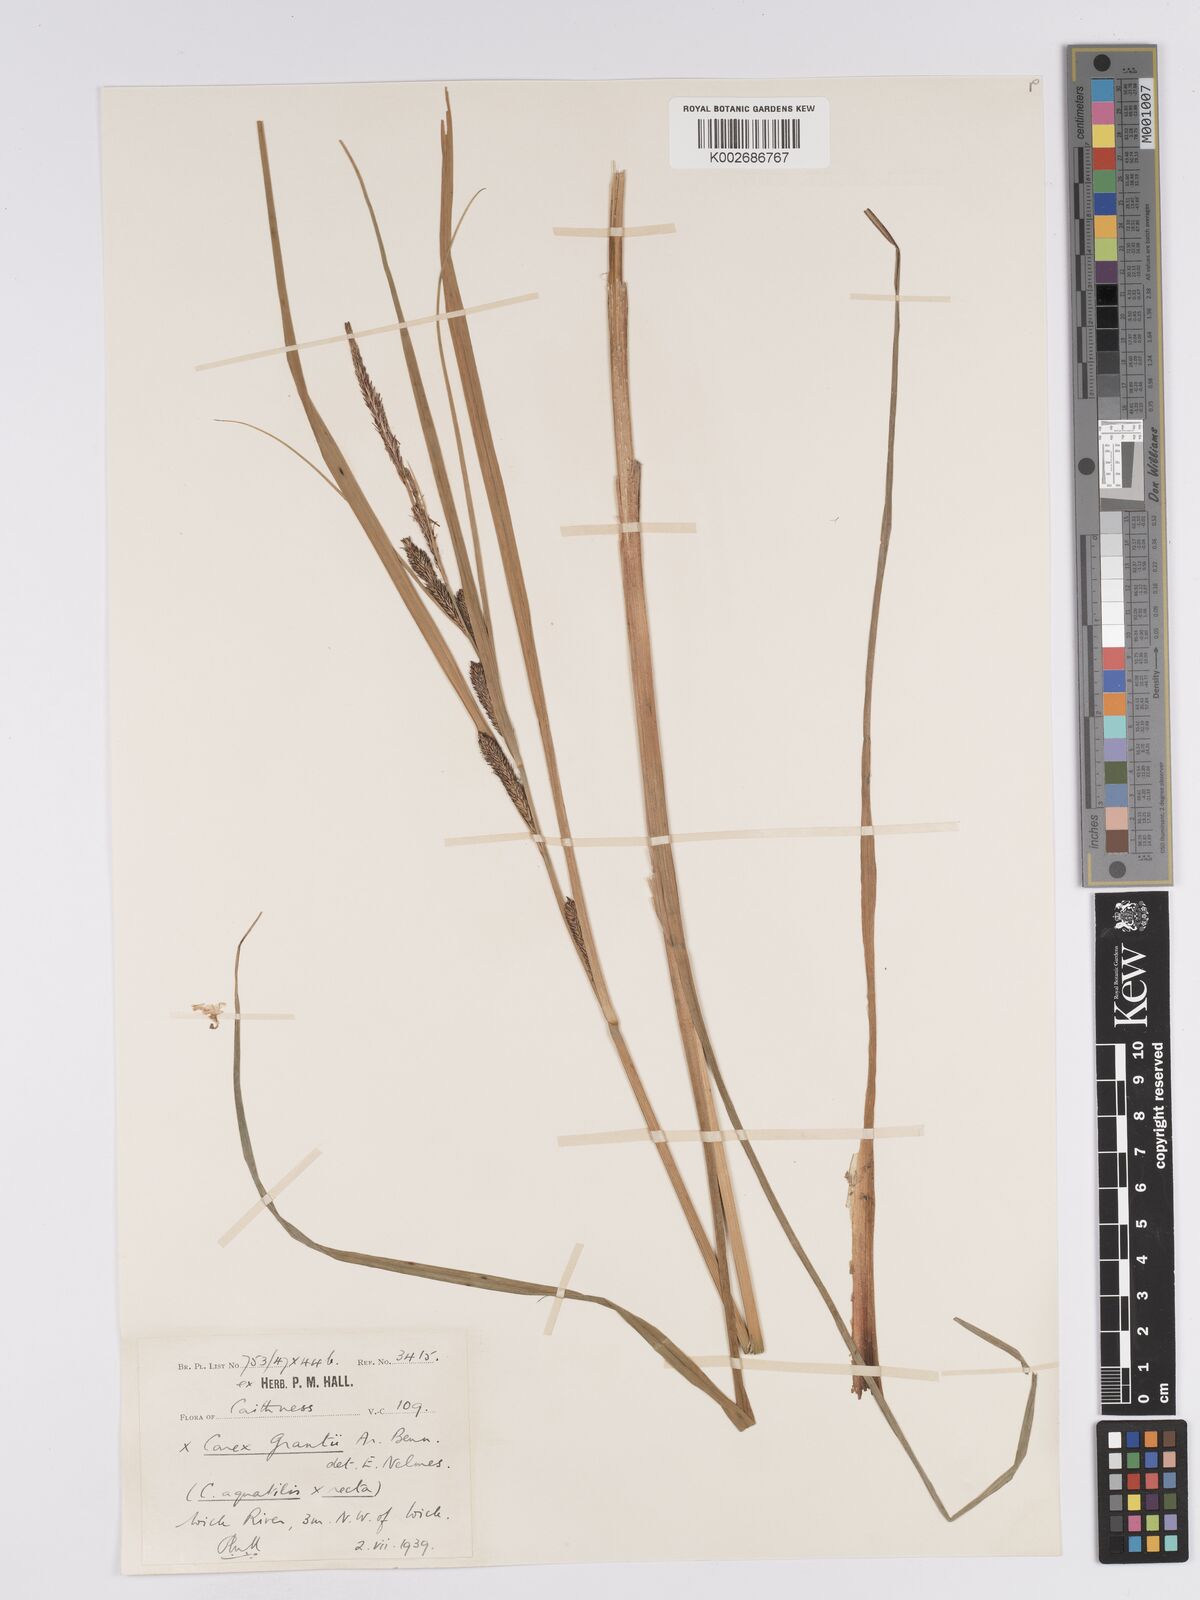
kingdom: Plantae
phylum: Tracheophyta
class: Liliopsida
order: Poales
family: Cyperaceae
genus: Carex
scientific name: Carex grantii
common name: Grant's sedge
